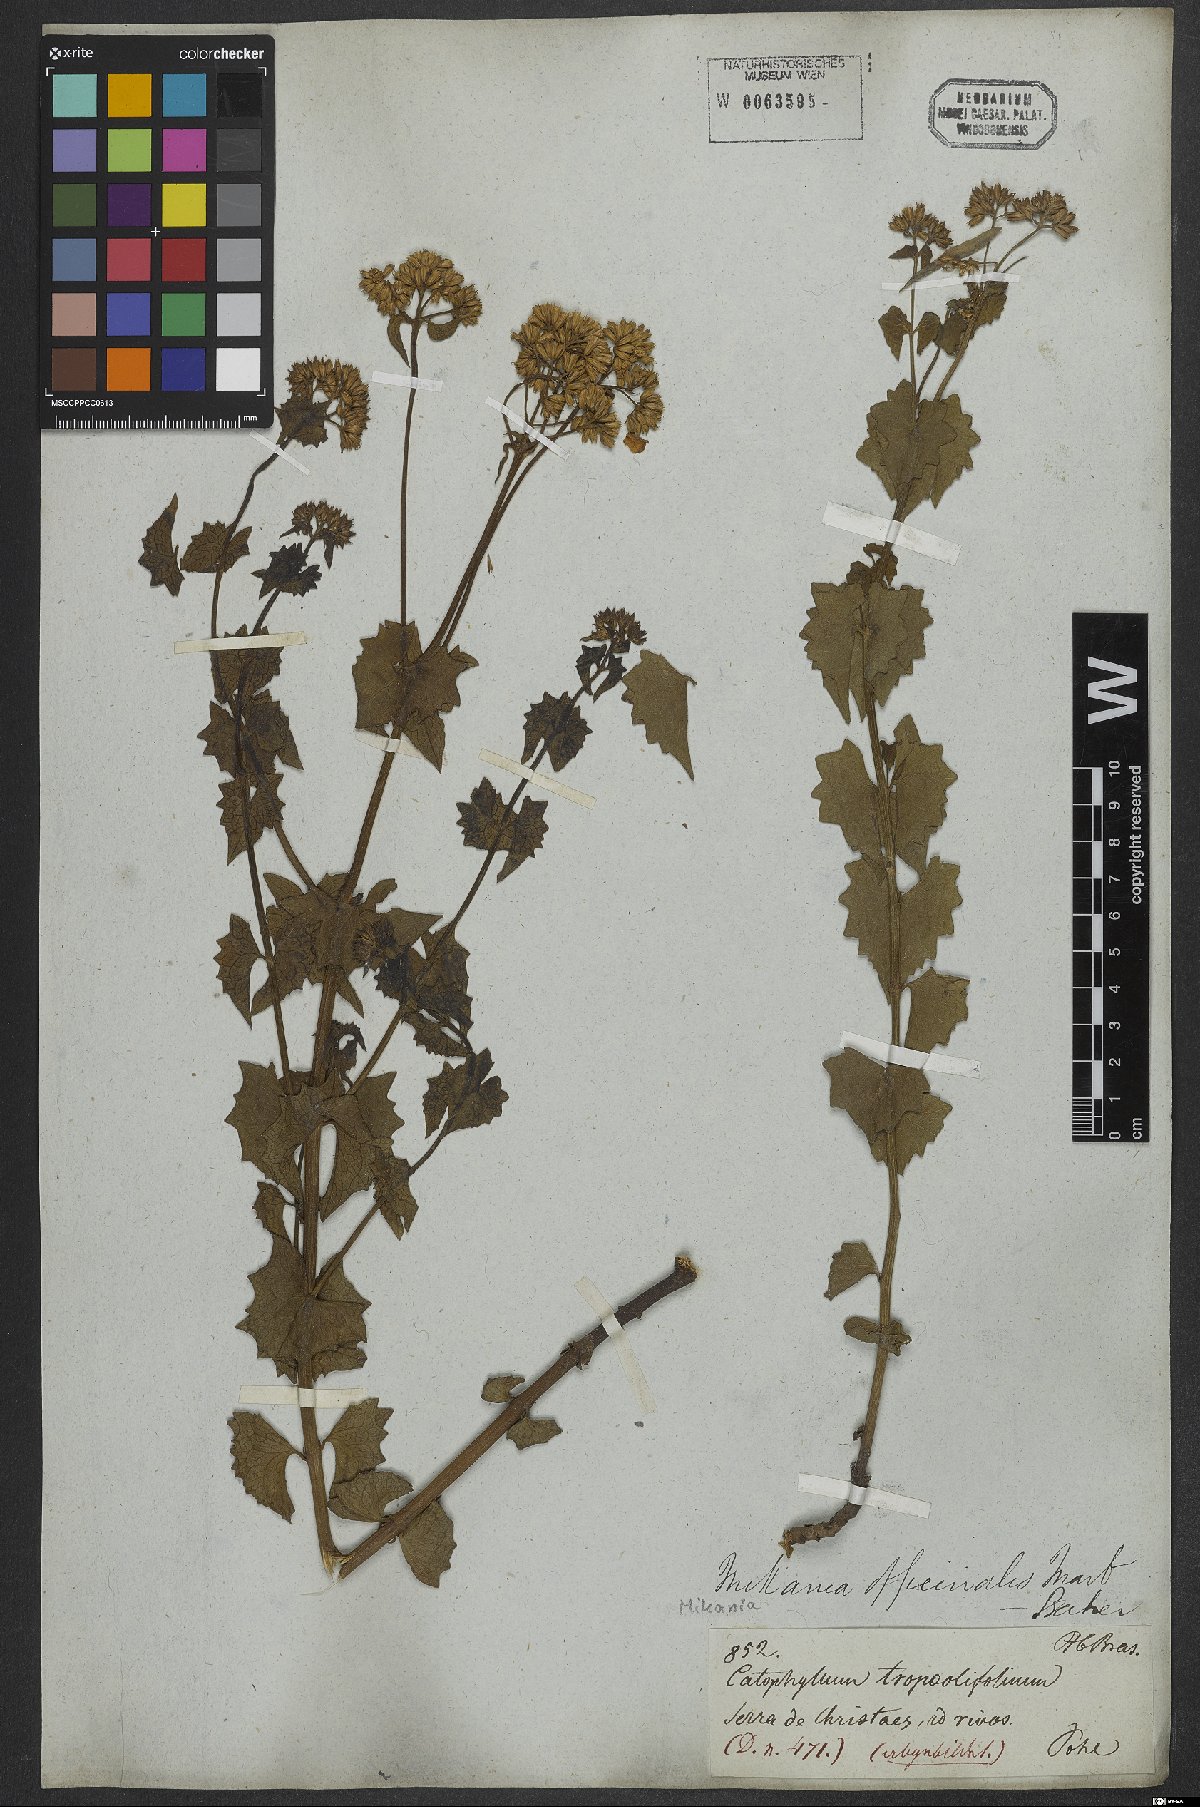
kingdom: Plantae
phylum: Tracheophyta
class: Magnoliopsida
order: Asterales
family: Asteraceae
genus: Mikania
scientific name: Mikania officinalis
